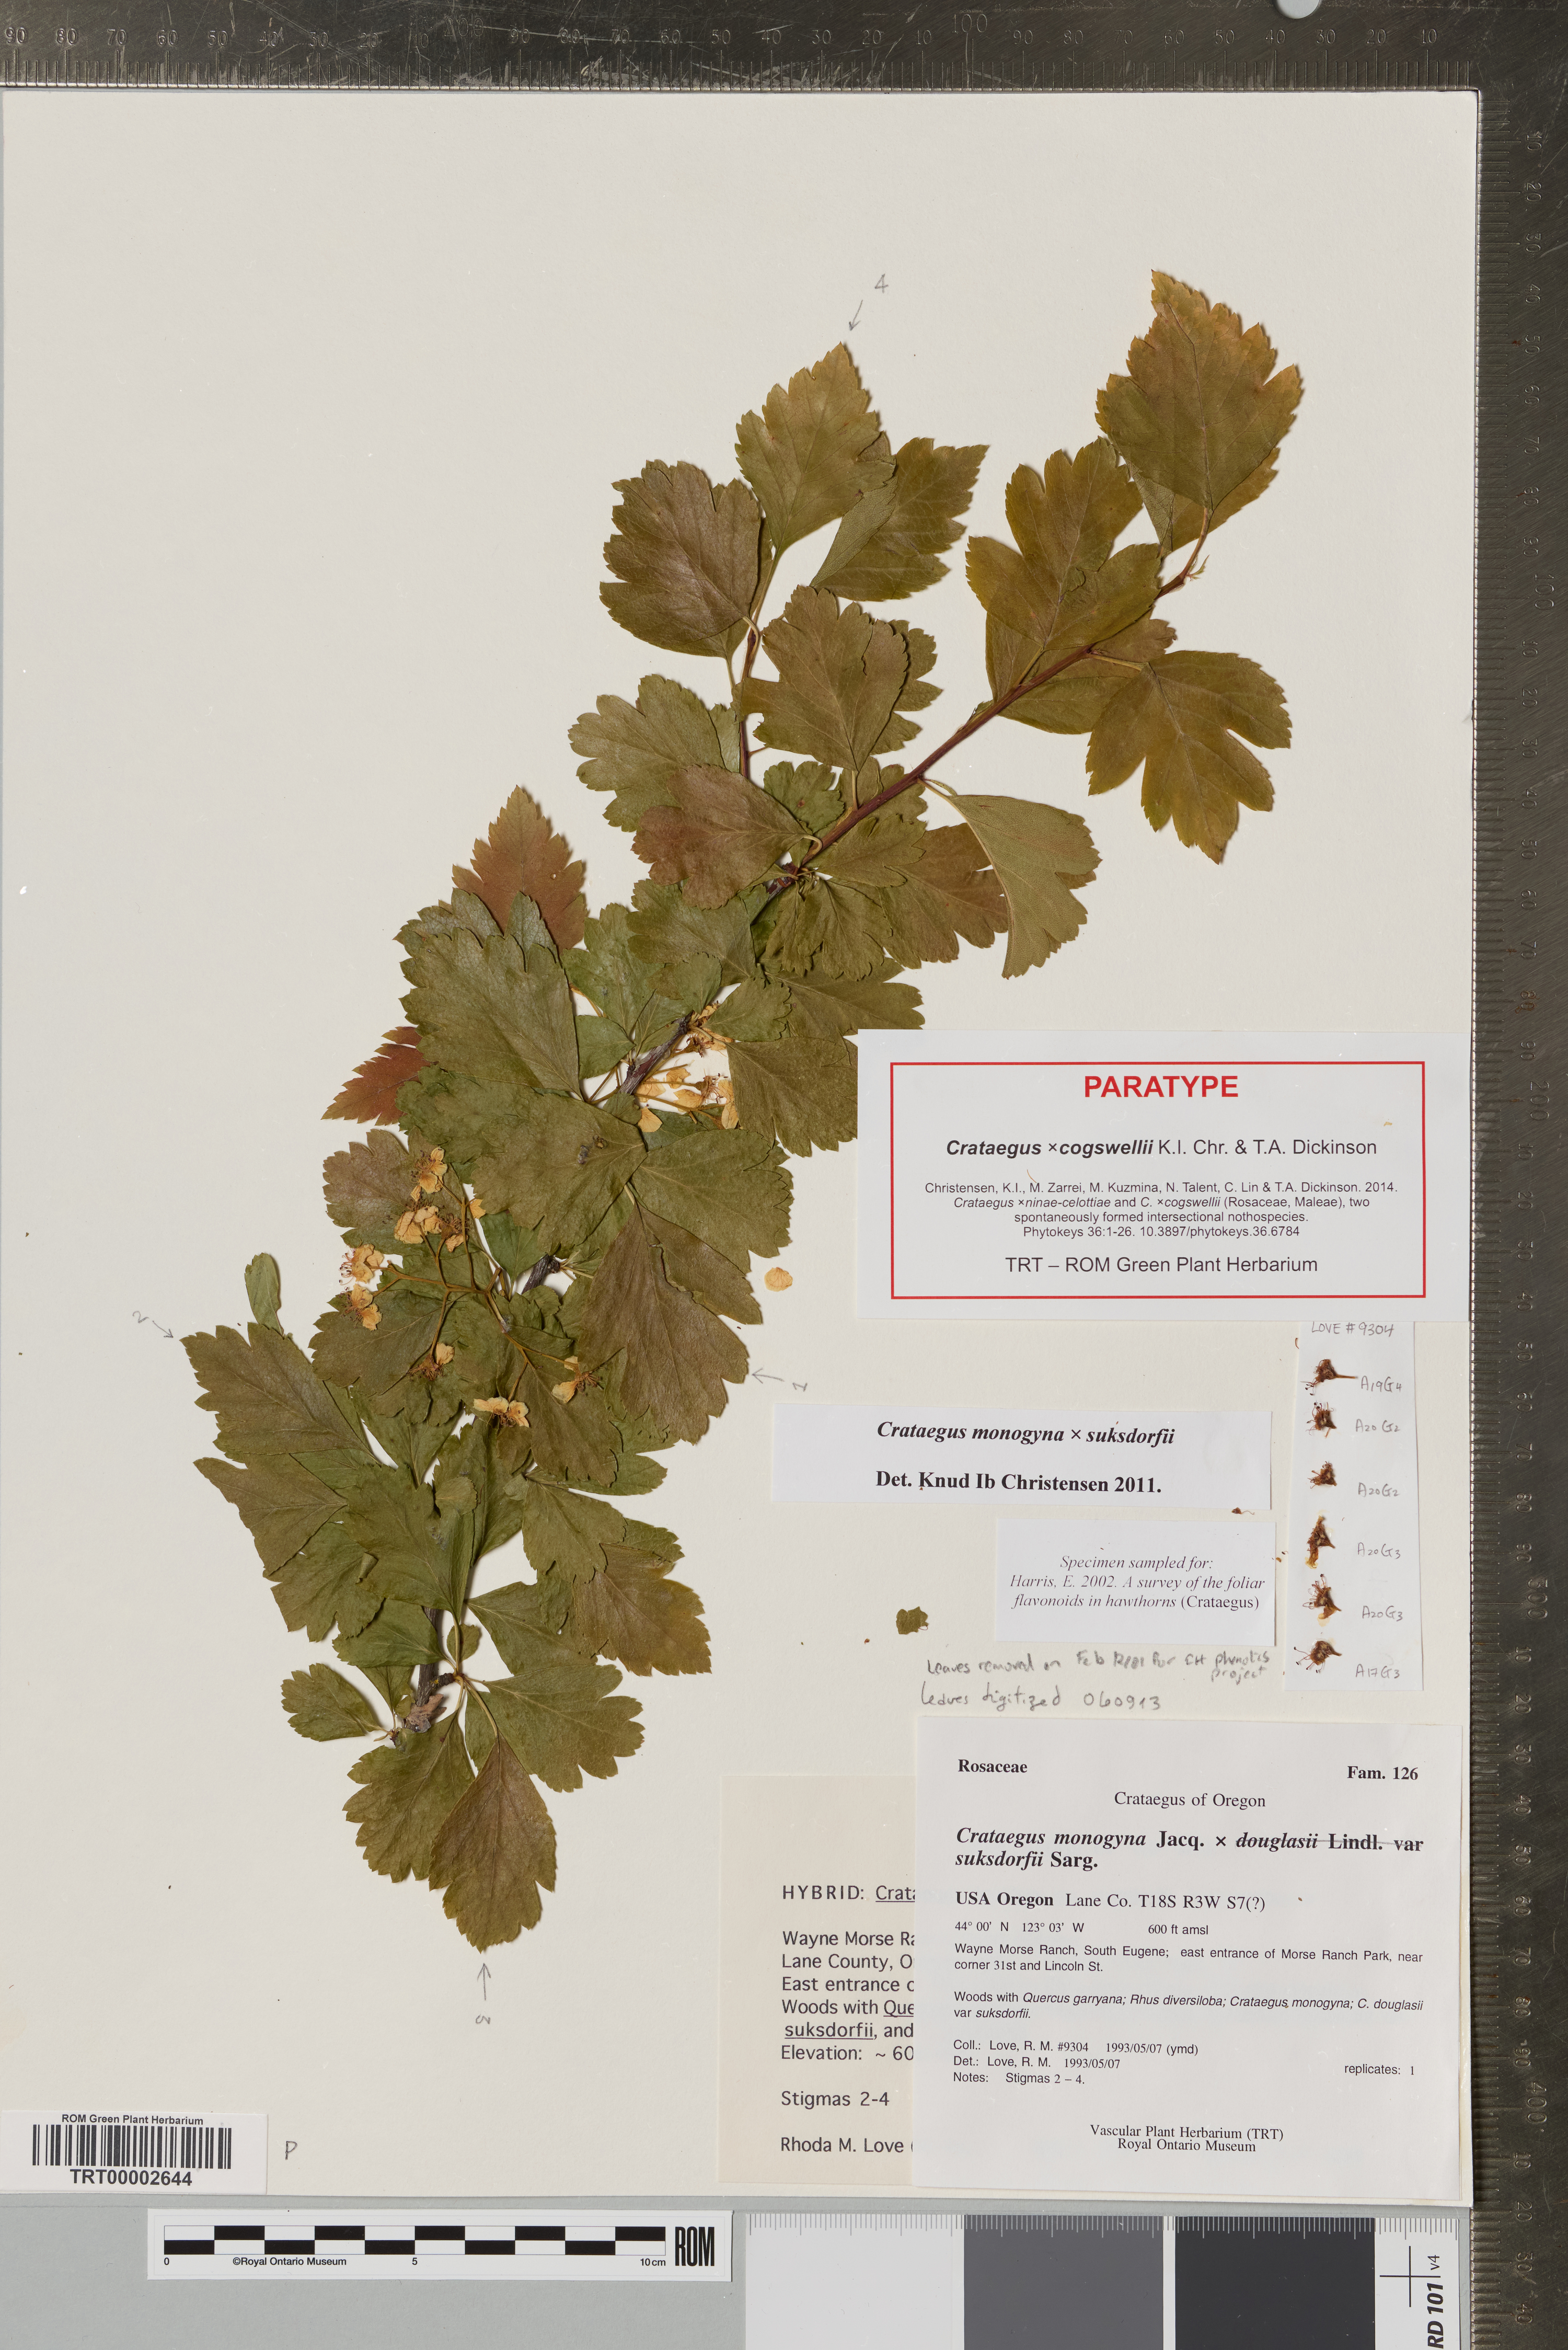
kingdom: Plantae
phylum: Tracheophyta
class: Magnoliopsida
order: Rosales
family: Rosaceae
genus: Crataegus
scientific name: Crataegus
